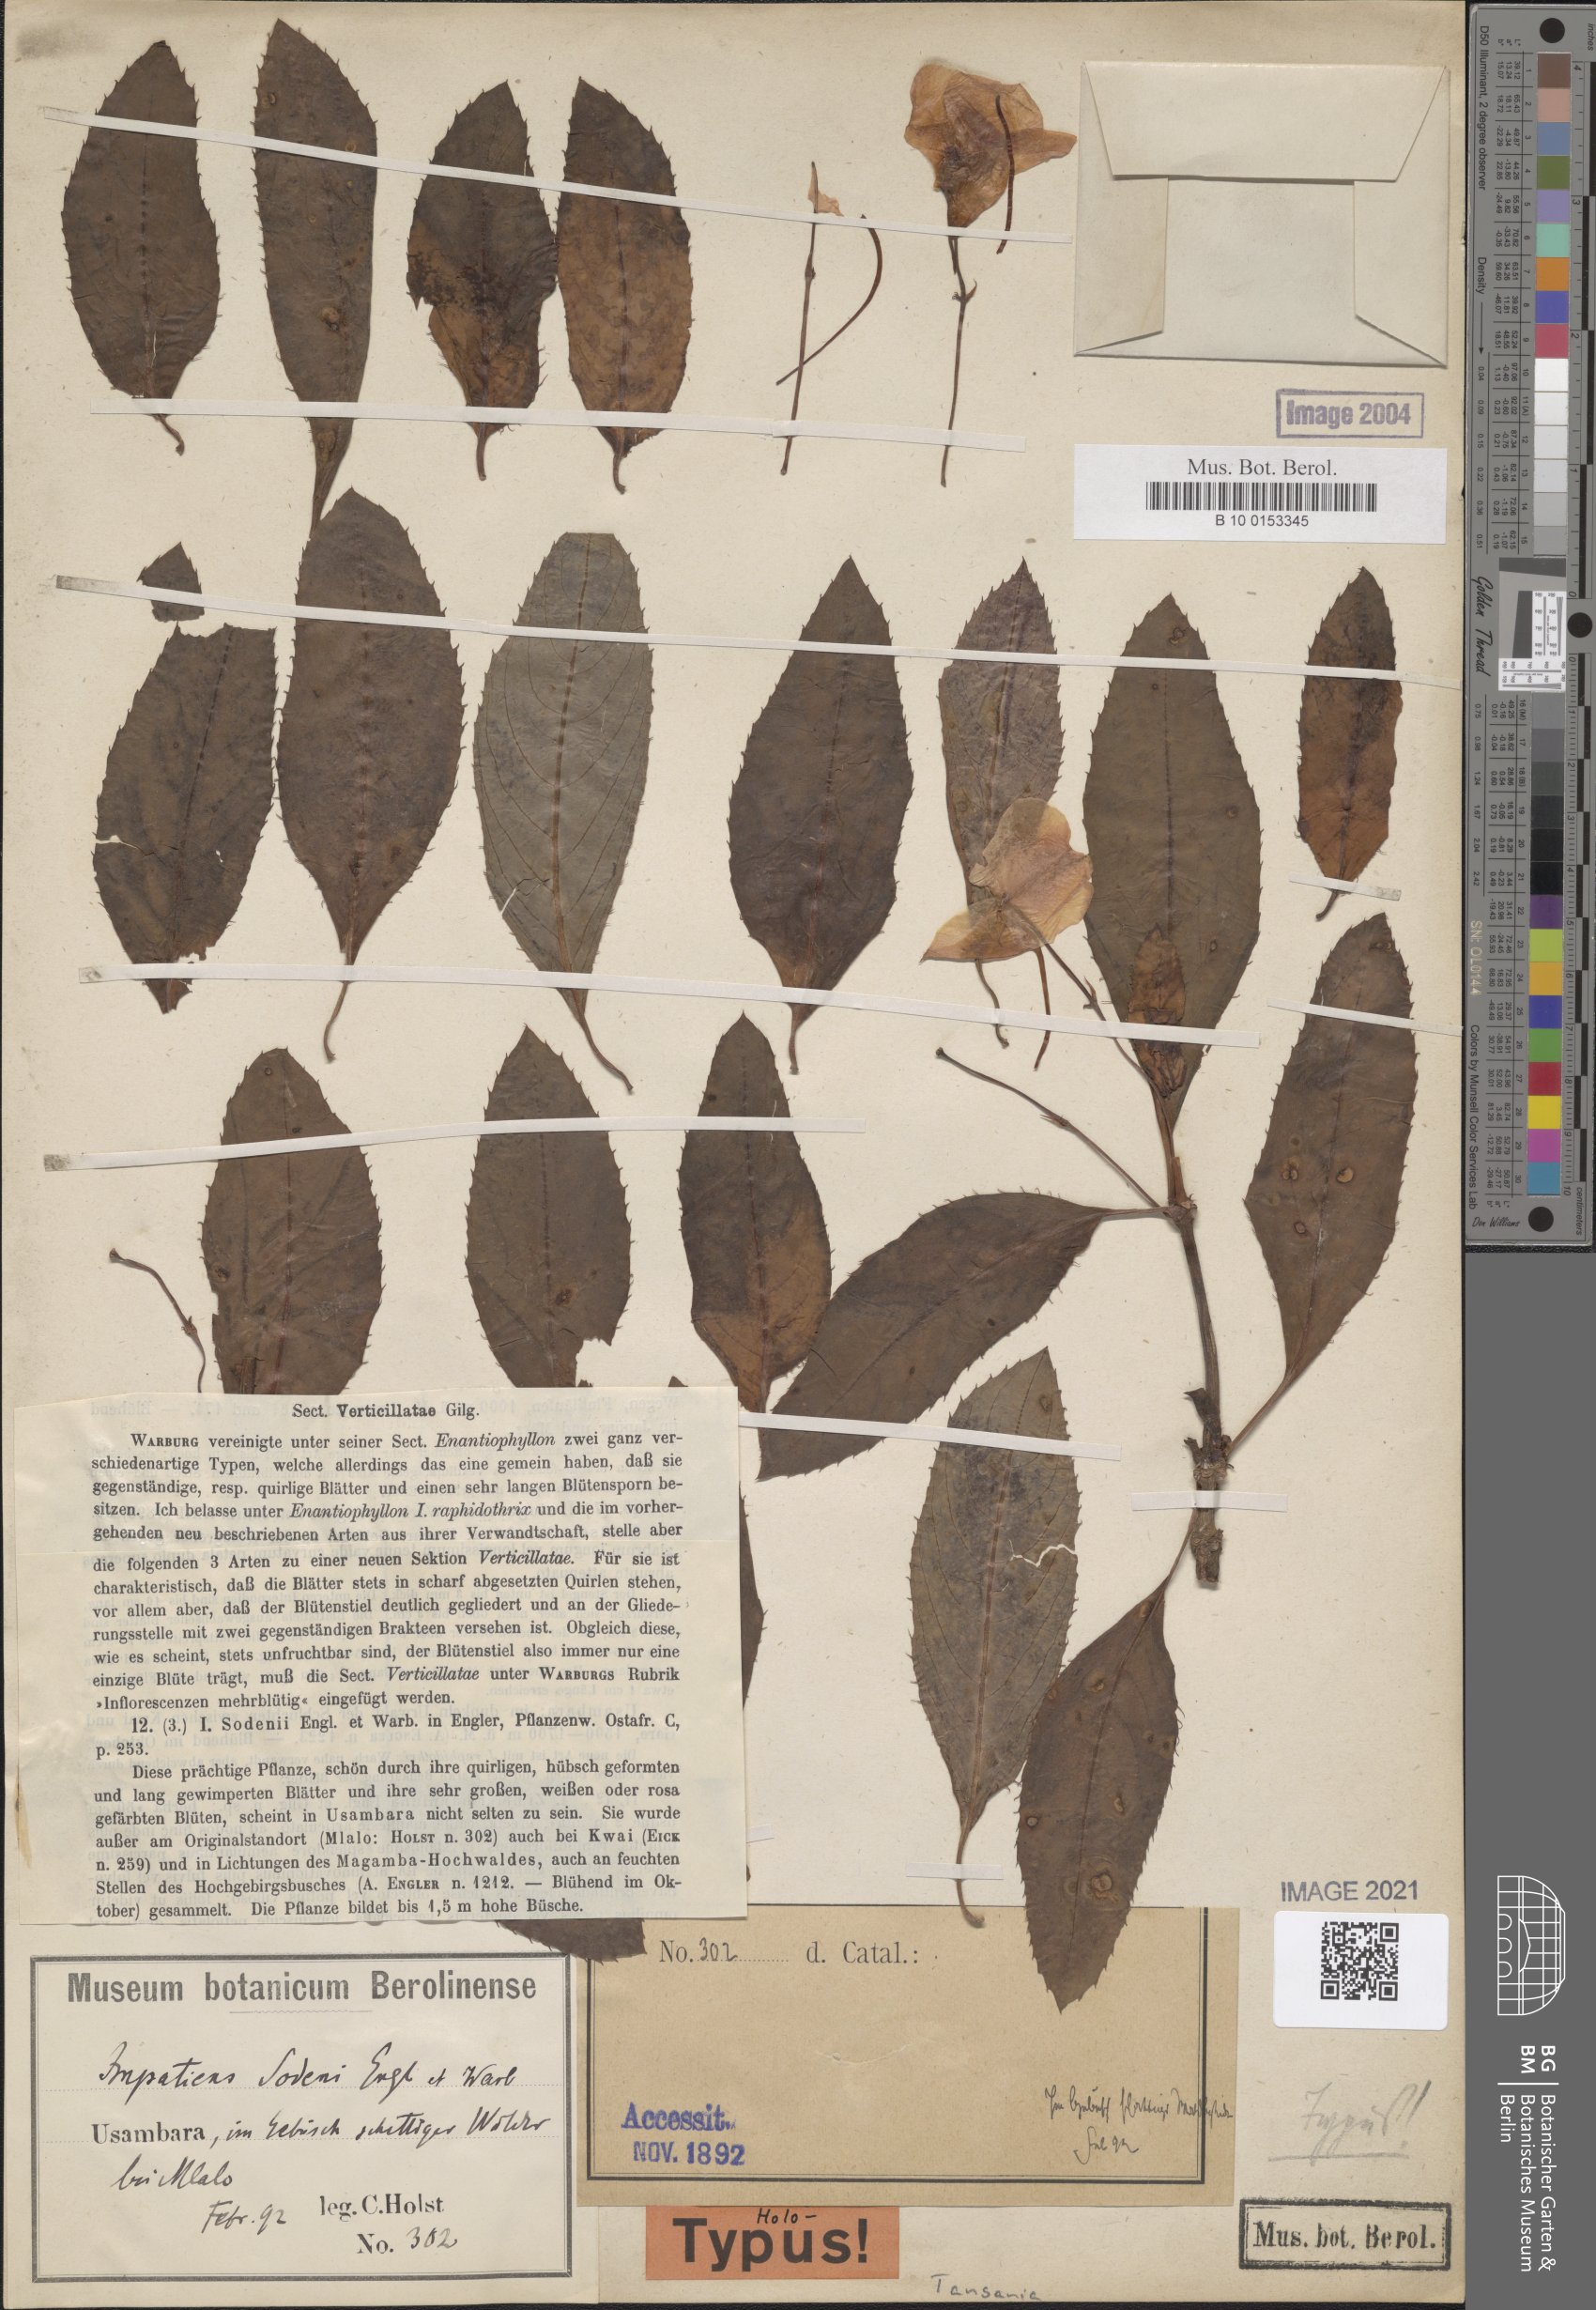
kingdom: Plantae
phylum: Tracheophyta
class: Magnoliopsida
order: Ericales
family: Balsaminaceae
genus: Impatiens
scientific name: Impatiens sodenii
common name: Oliver's touch-me-not
